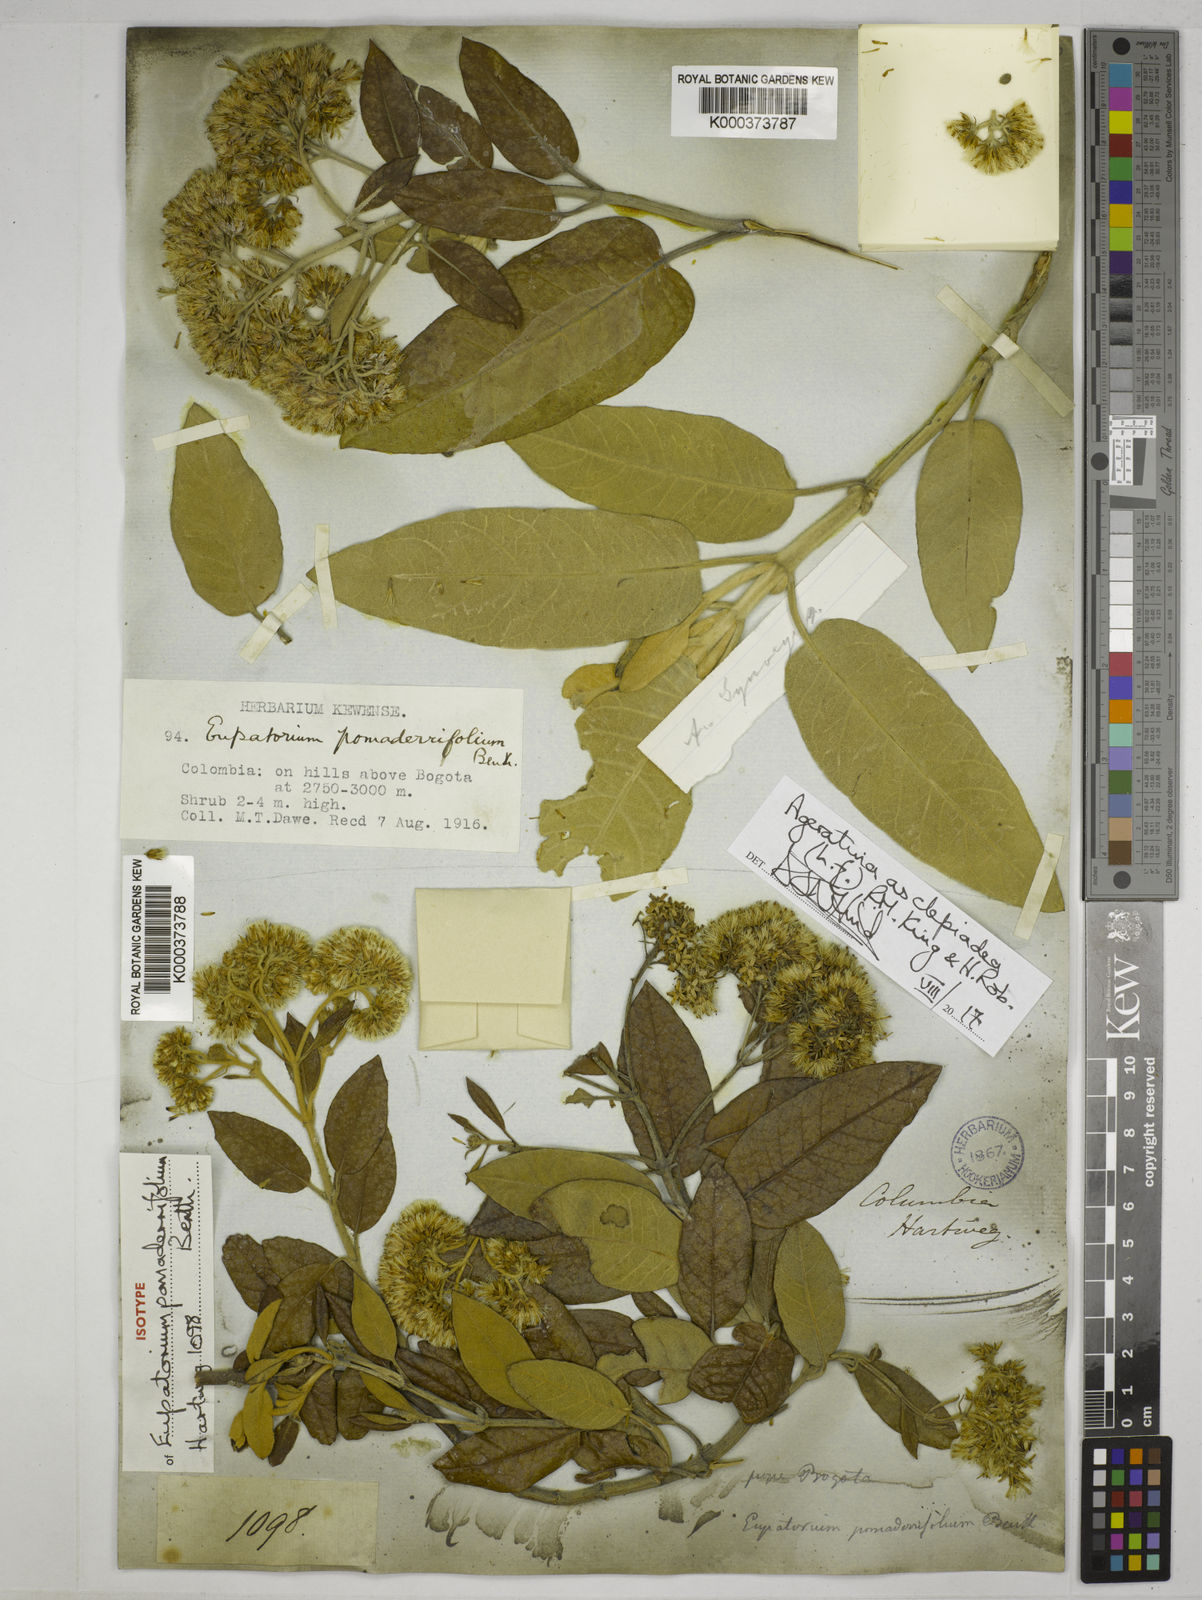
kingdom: Plantae
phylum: Tracheophyta
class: Magnoliopsida
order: Asterales
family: Asteraceae
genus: Ageratina
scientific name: Ageratina asclepiadea
